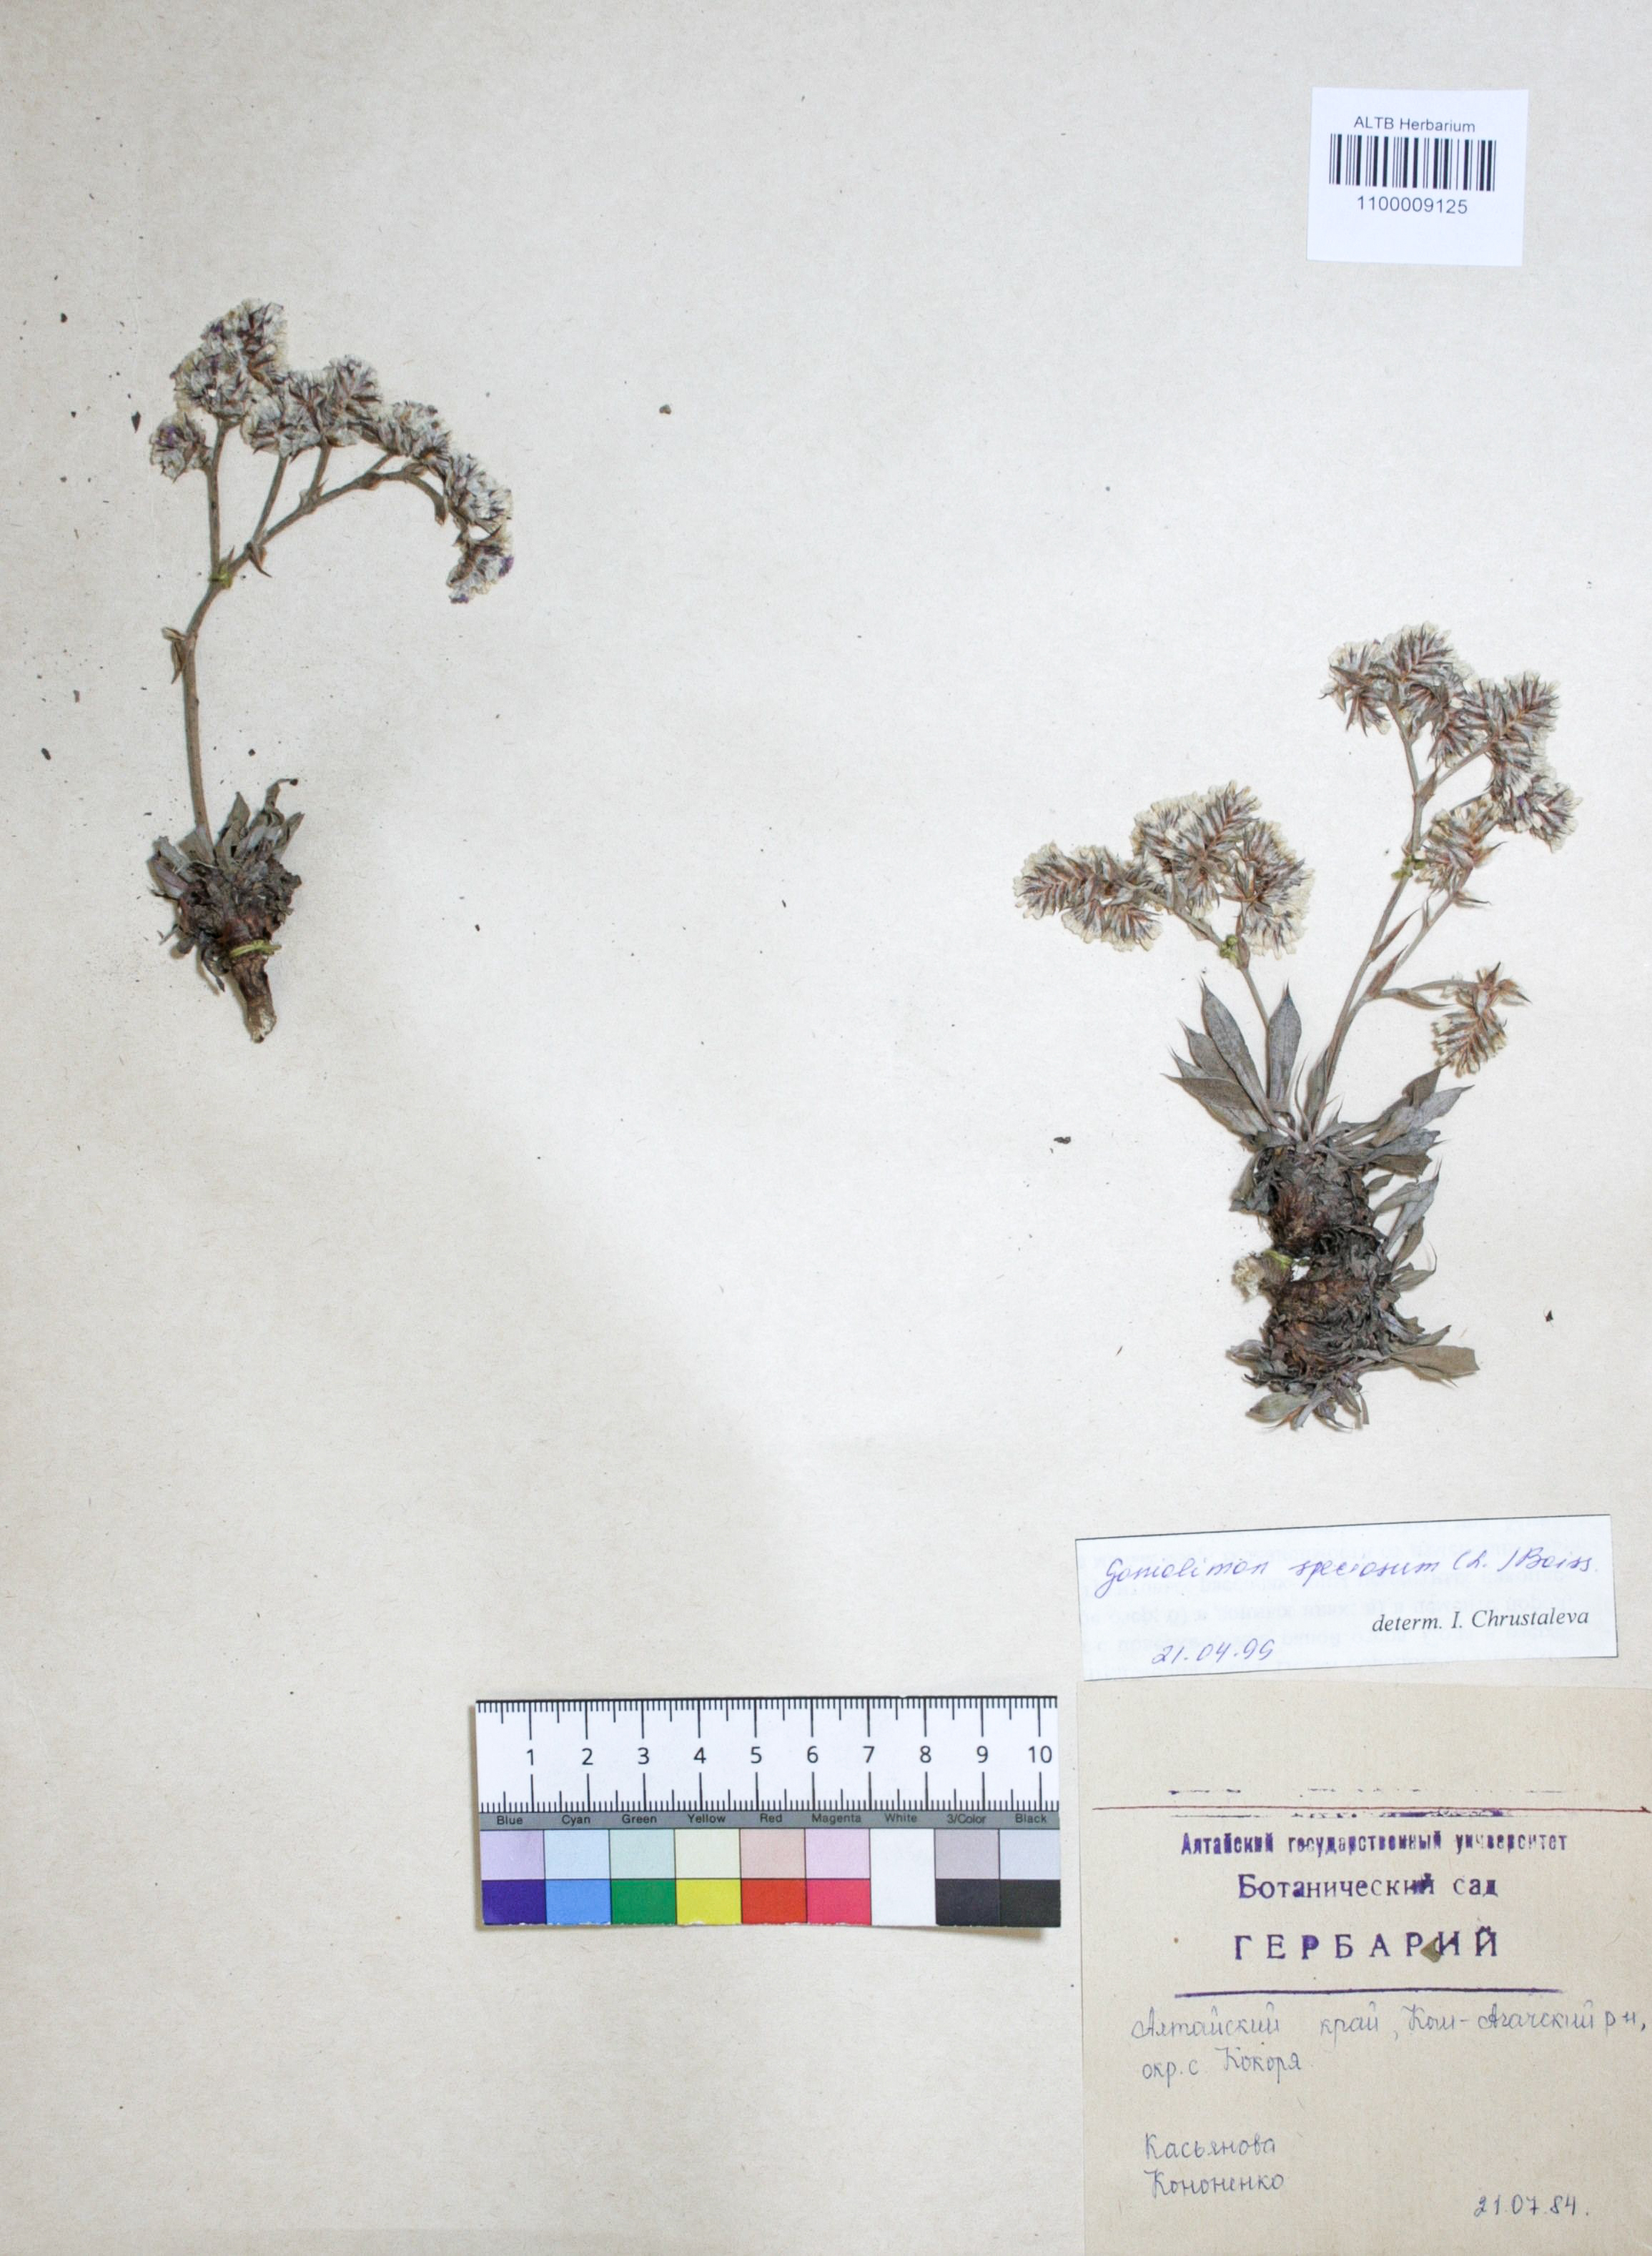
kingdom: Plantae
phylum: Tracheophyta
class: Magnoliopsida
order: Caryophyllales
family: Plumbaginaceae
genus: Goniolimon
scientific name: Goniolimon speciosum
